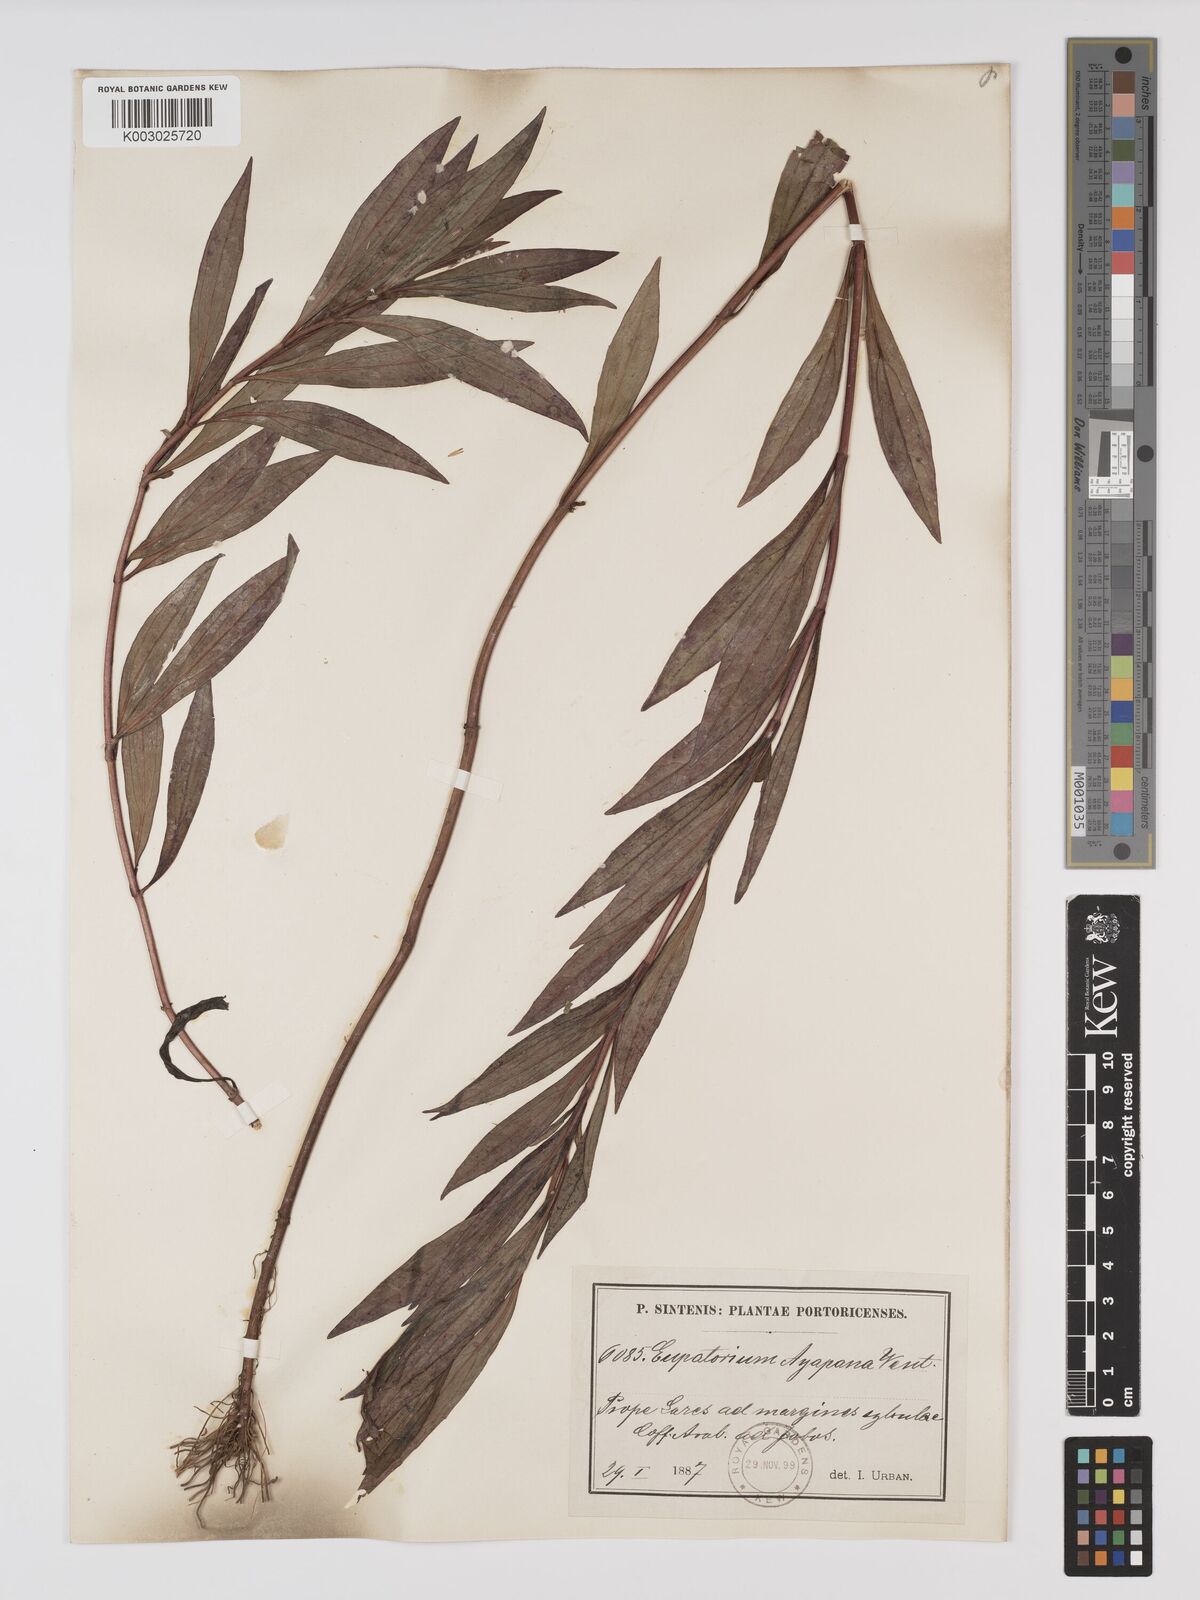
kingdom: Plantae
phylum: Tracheophyta
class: Magnoliopsida
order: Asterales
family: Asteraceae
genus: Ayapana
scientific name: Ayapana
